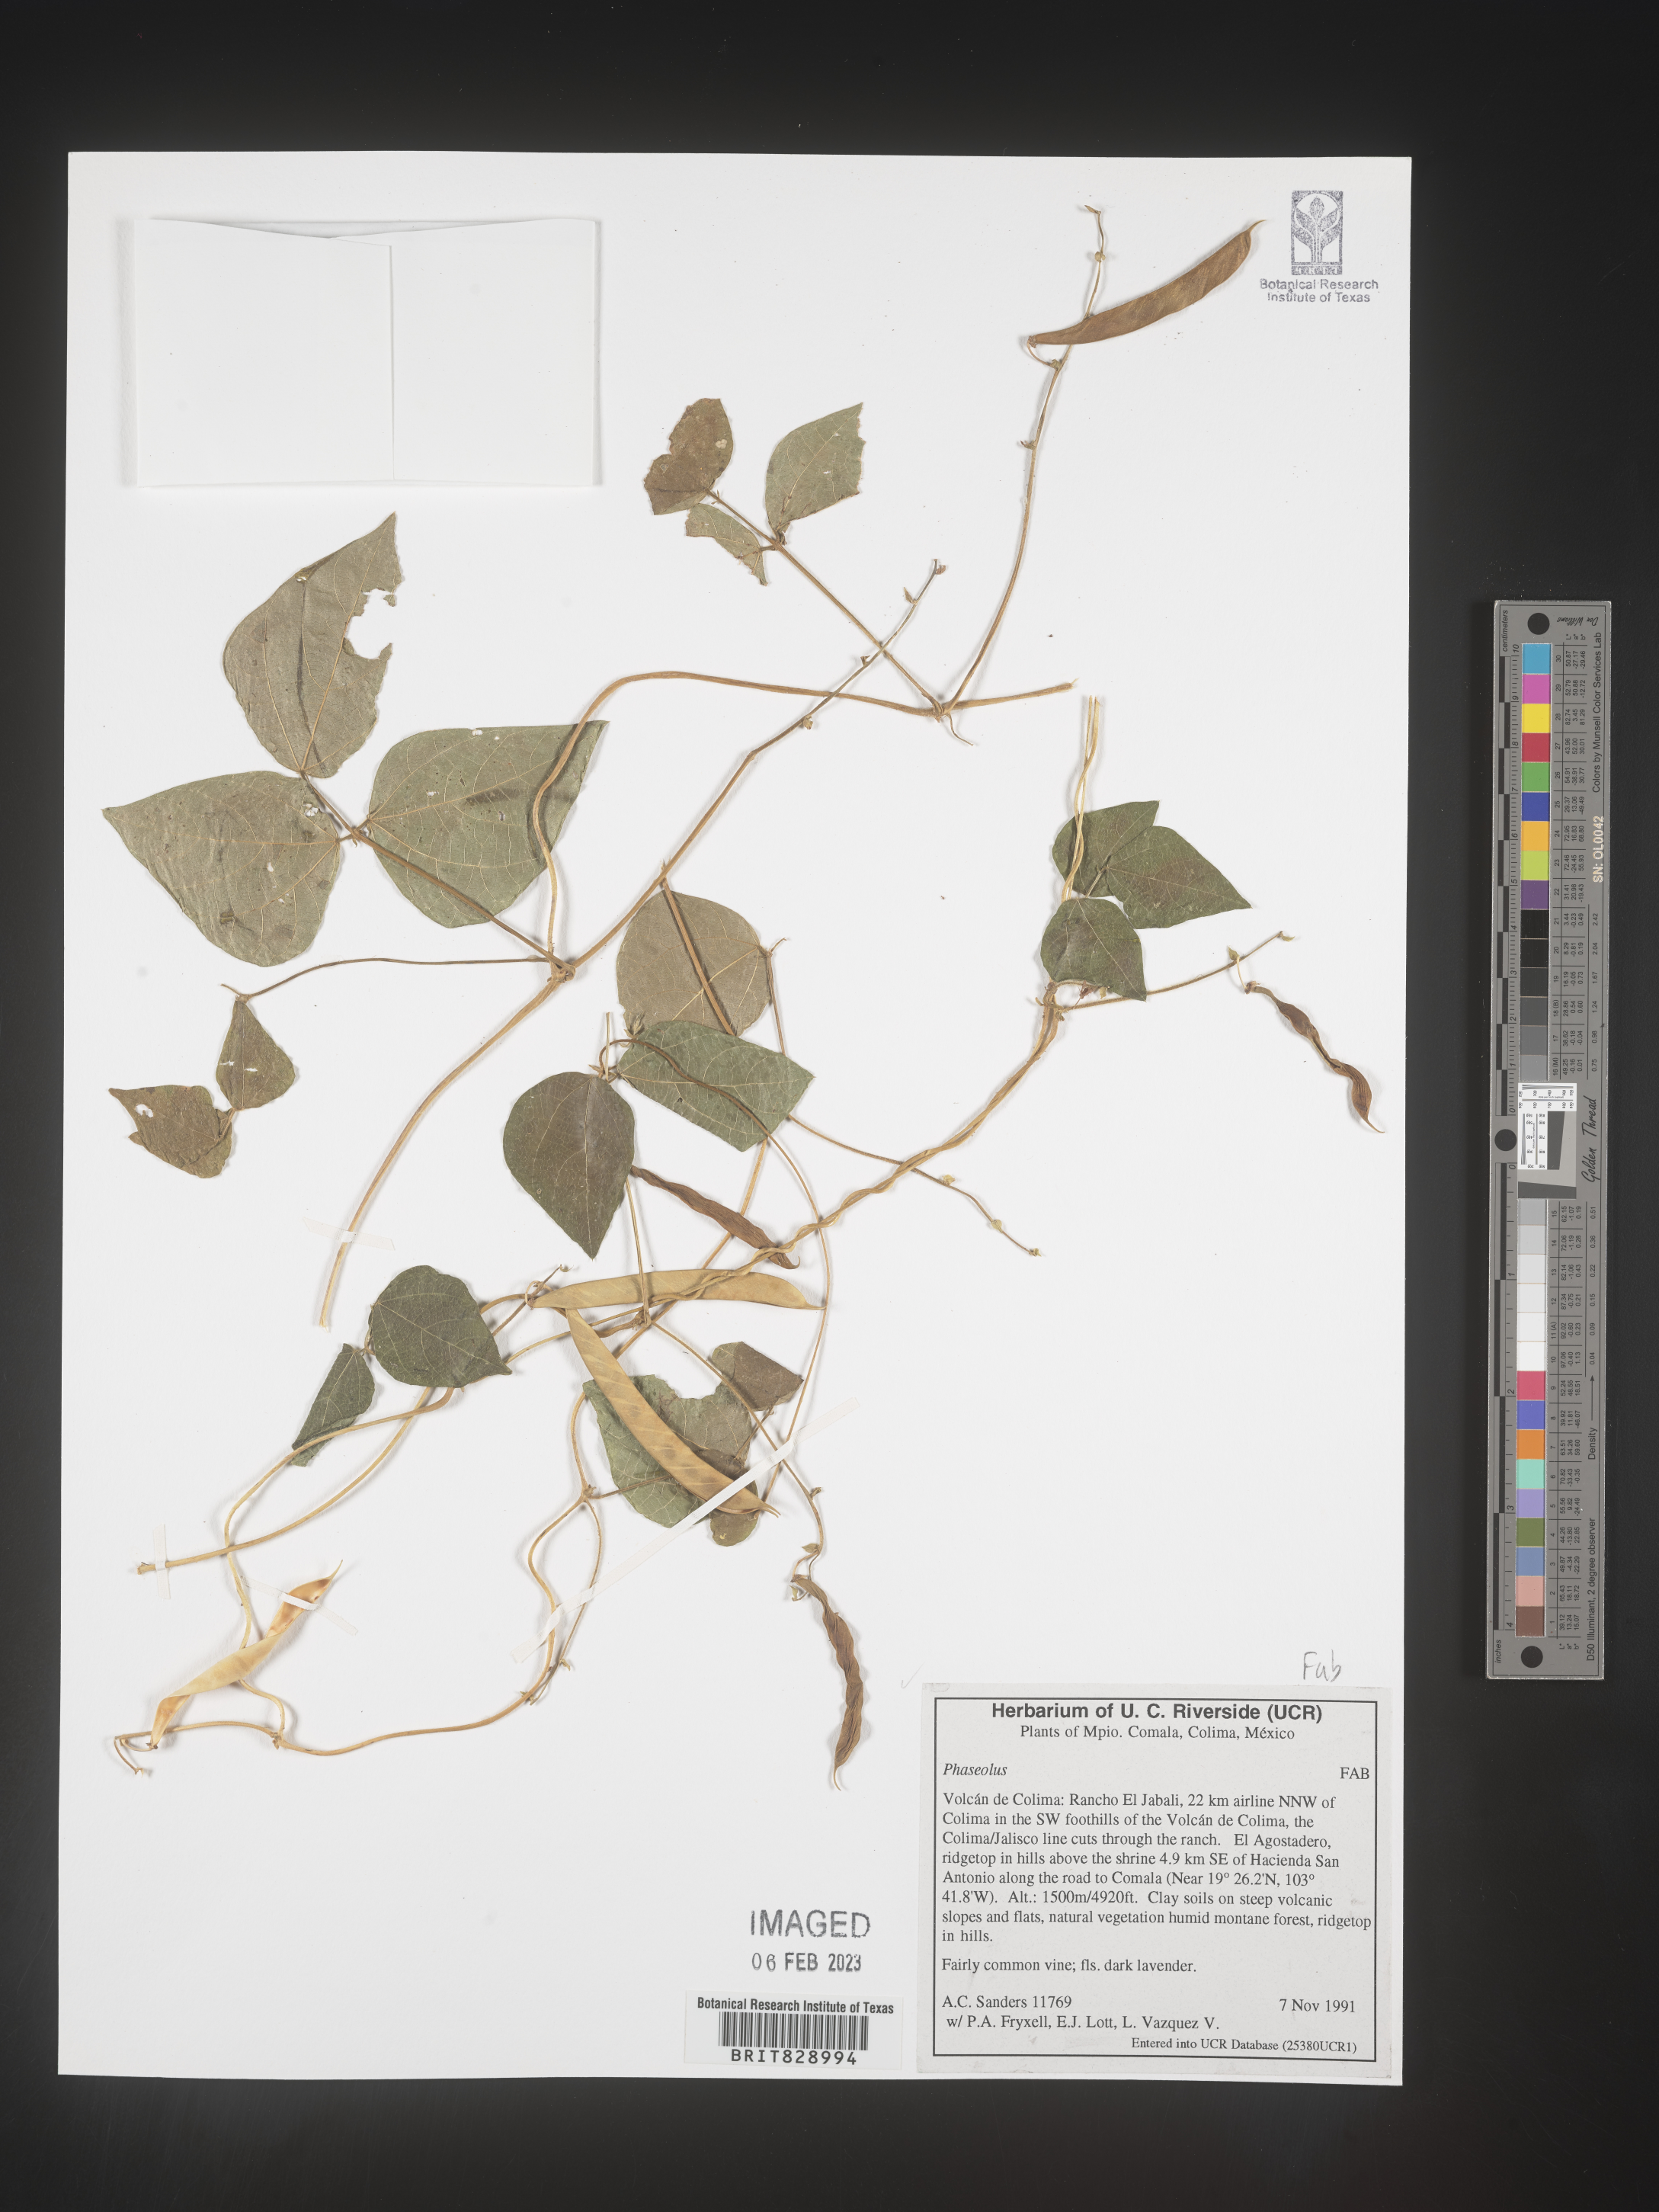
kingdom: Plantae
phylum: Tracheophyta
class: Magnoliopsida
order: Fabales
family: Fabaceae
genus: Phaseolus
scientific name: Phaseolus
